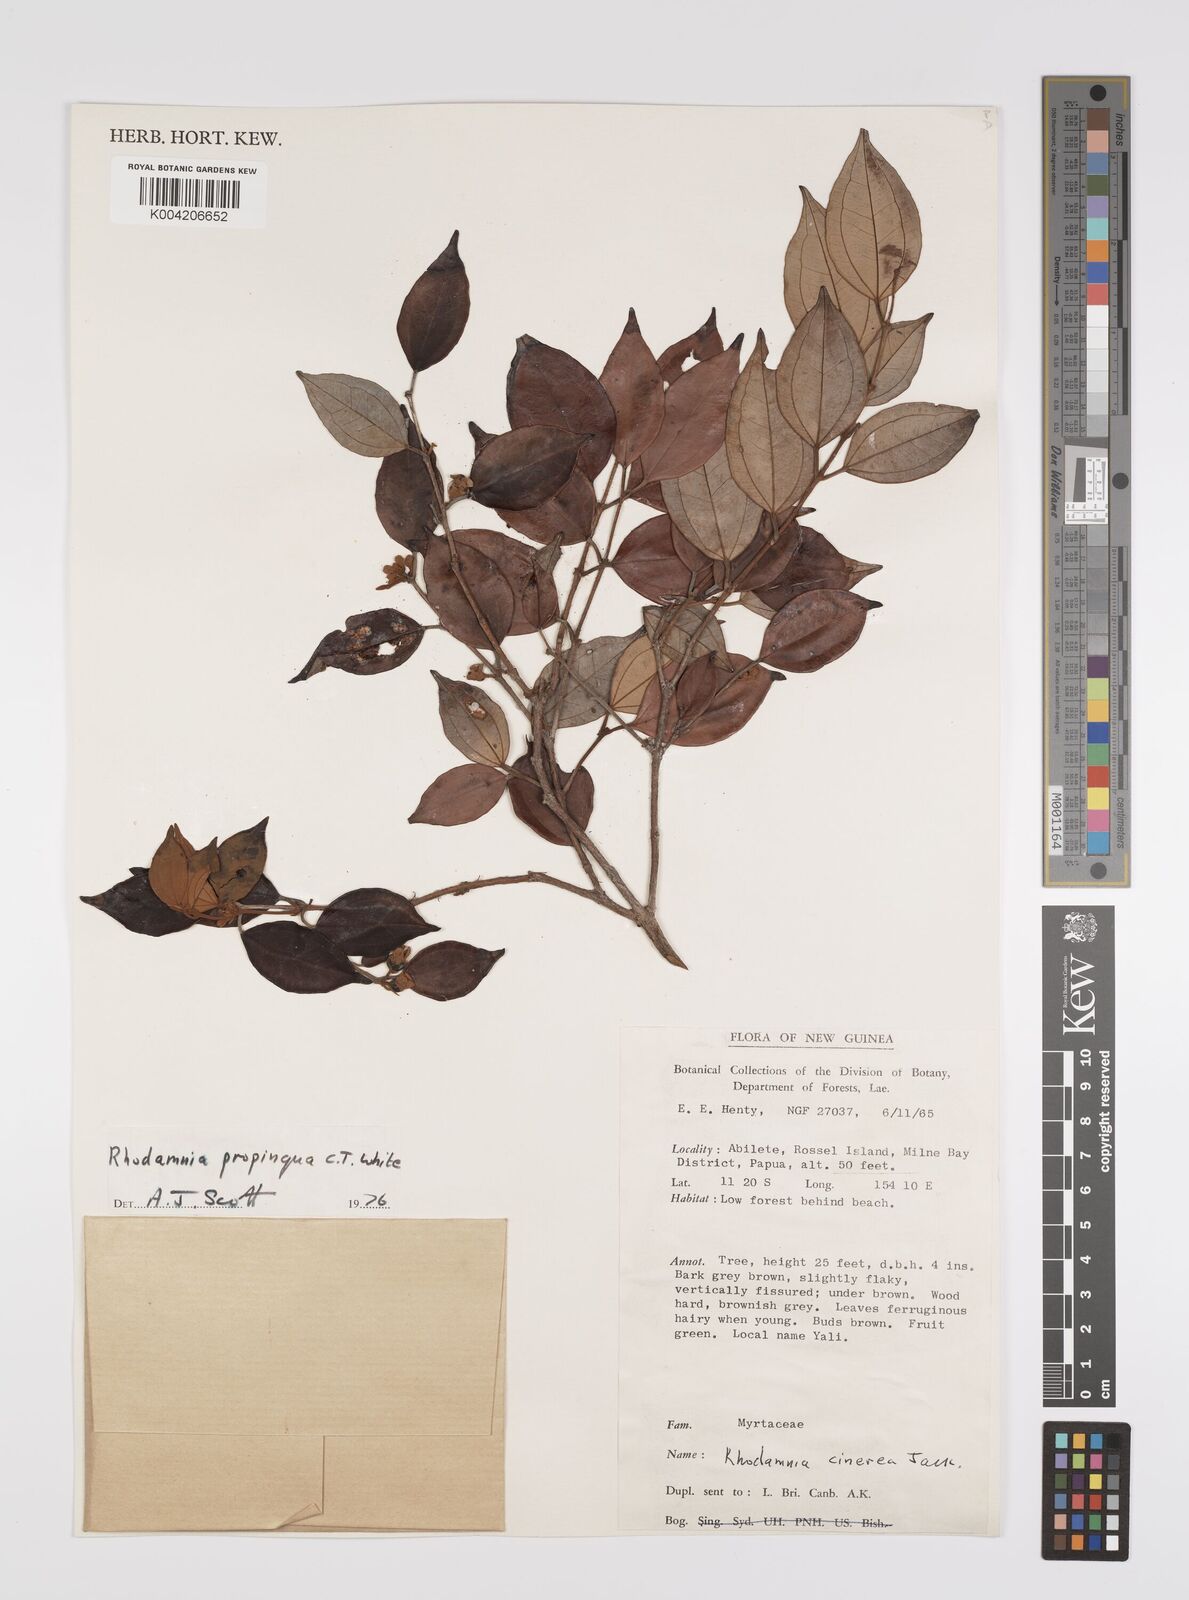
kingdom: Plantae
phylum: Tracheophyta
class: Magnoliopsida
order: Myrtales
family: Myrtaceae
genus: Rhodamnia
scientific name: Rhodamnia blairiana
